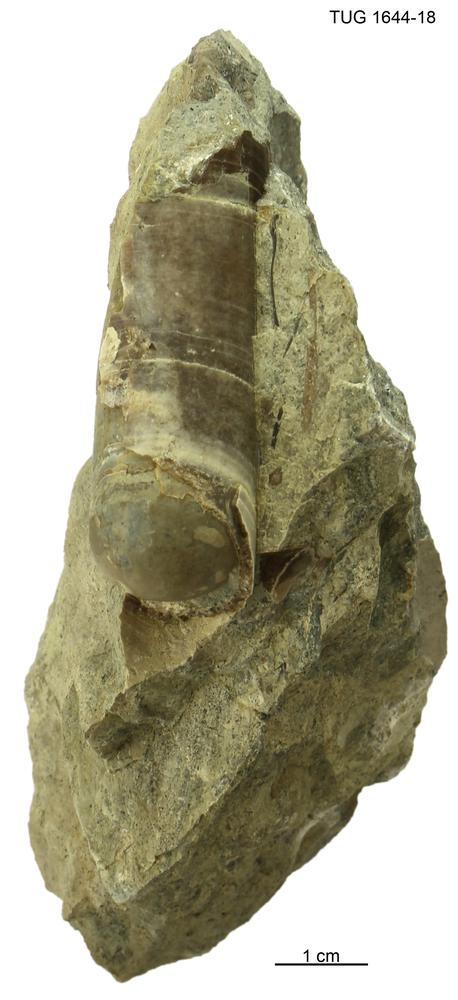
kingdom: Animalia
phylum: Mollusca
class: Cephalopoda
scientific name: Cephalopoda
